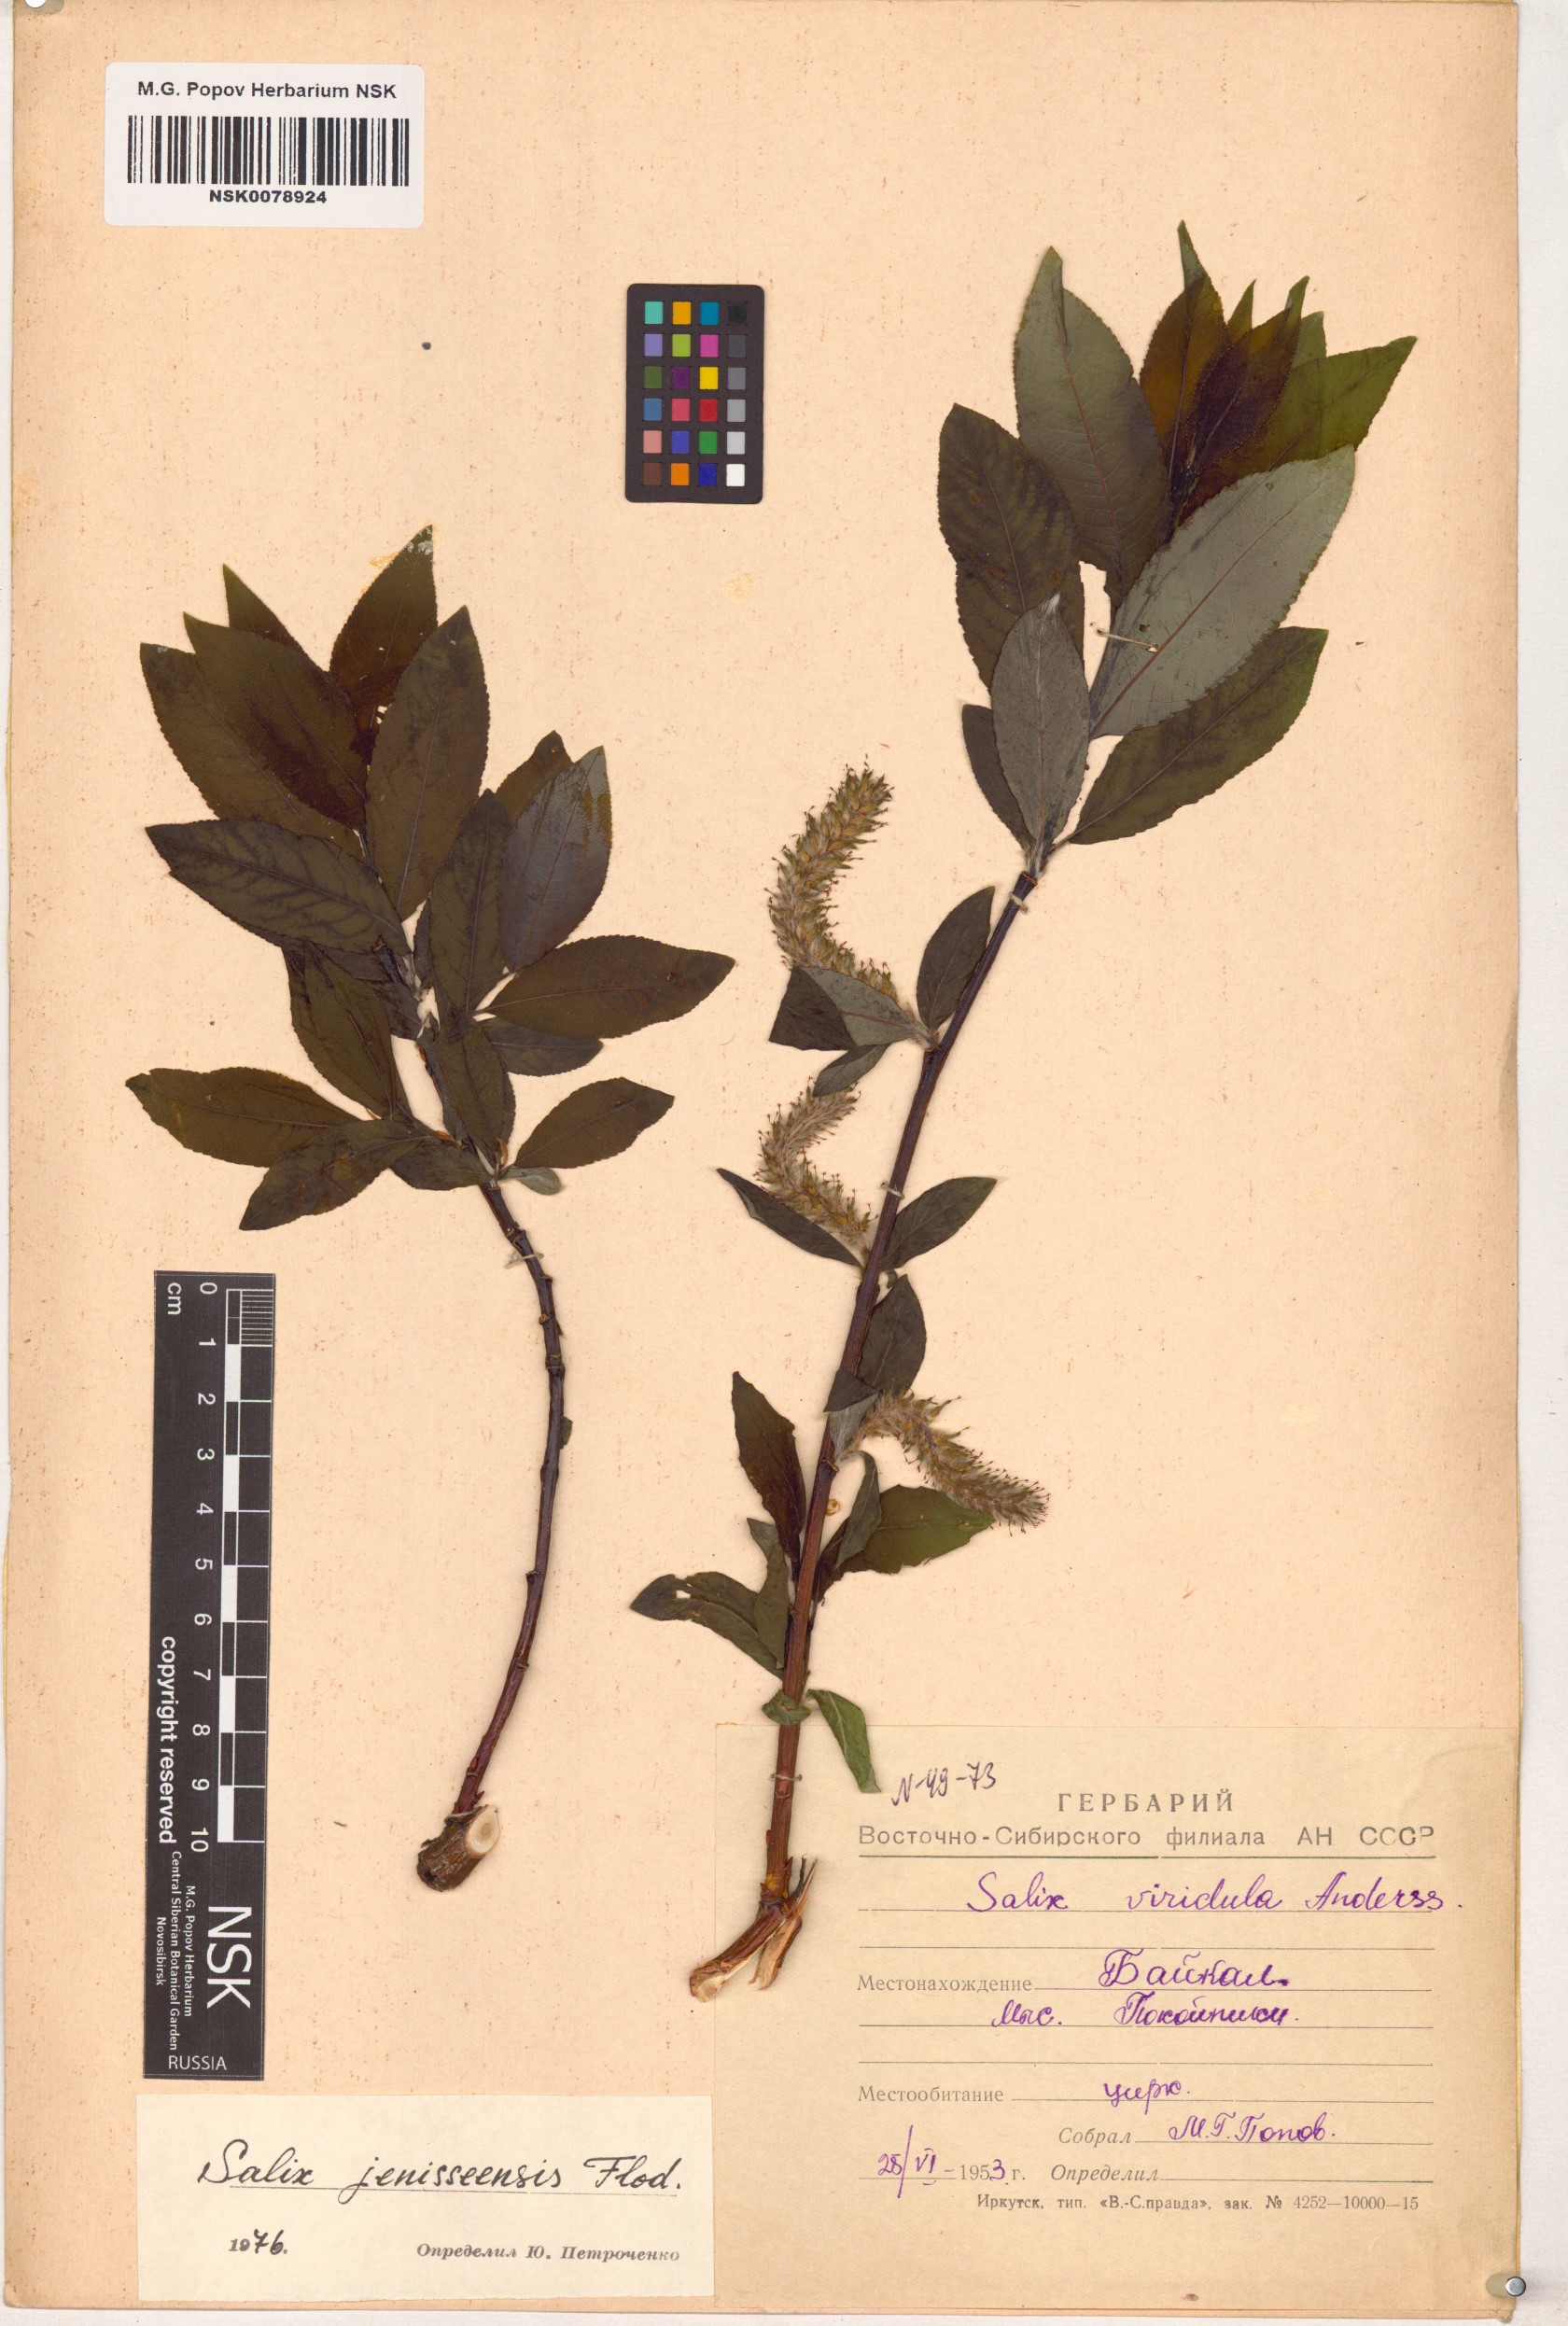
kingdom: Plantae
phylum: Tracheophyta
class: Magnoliopsida
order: Malpighiales
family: Salicaceae
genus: Salix
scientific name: Salix jenisseensis
